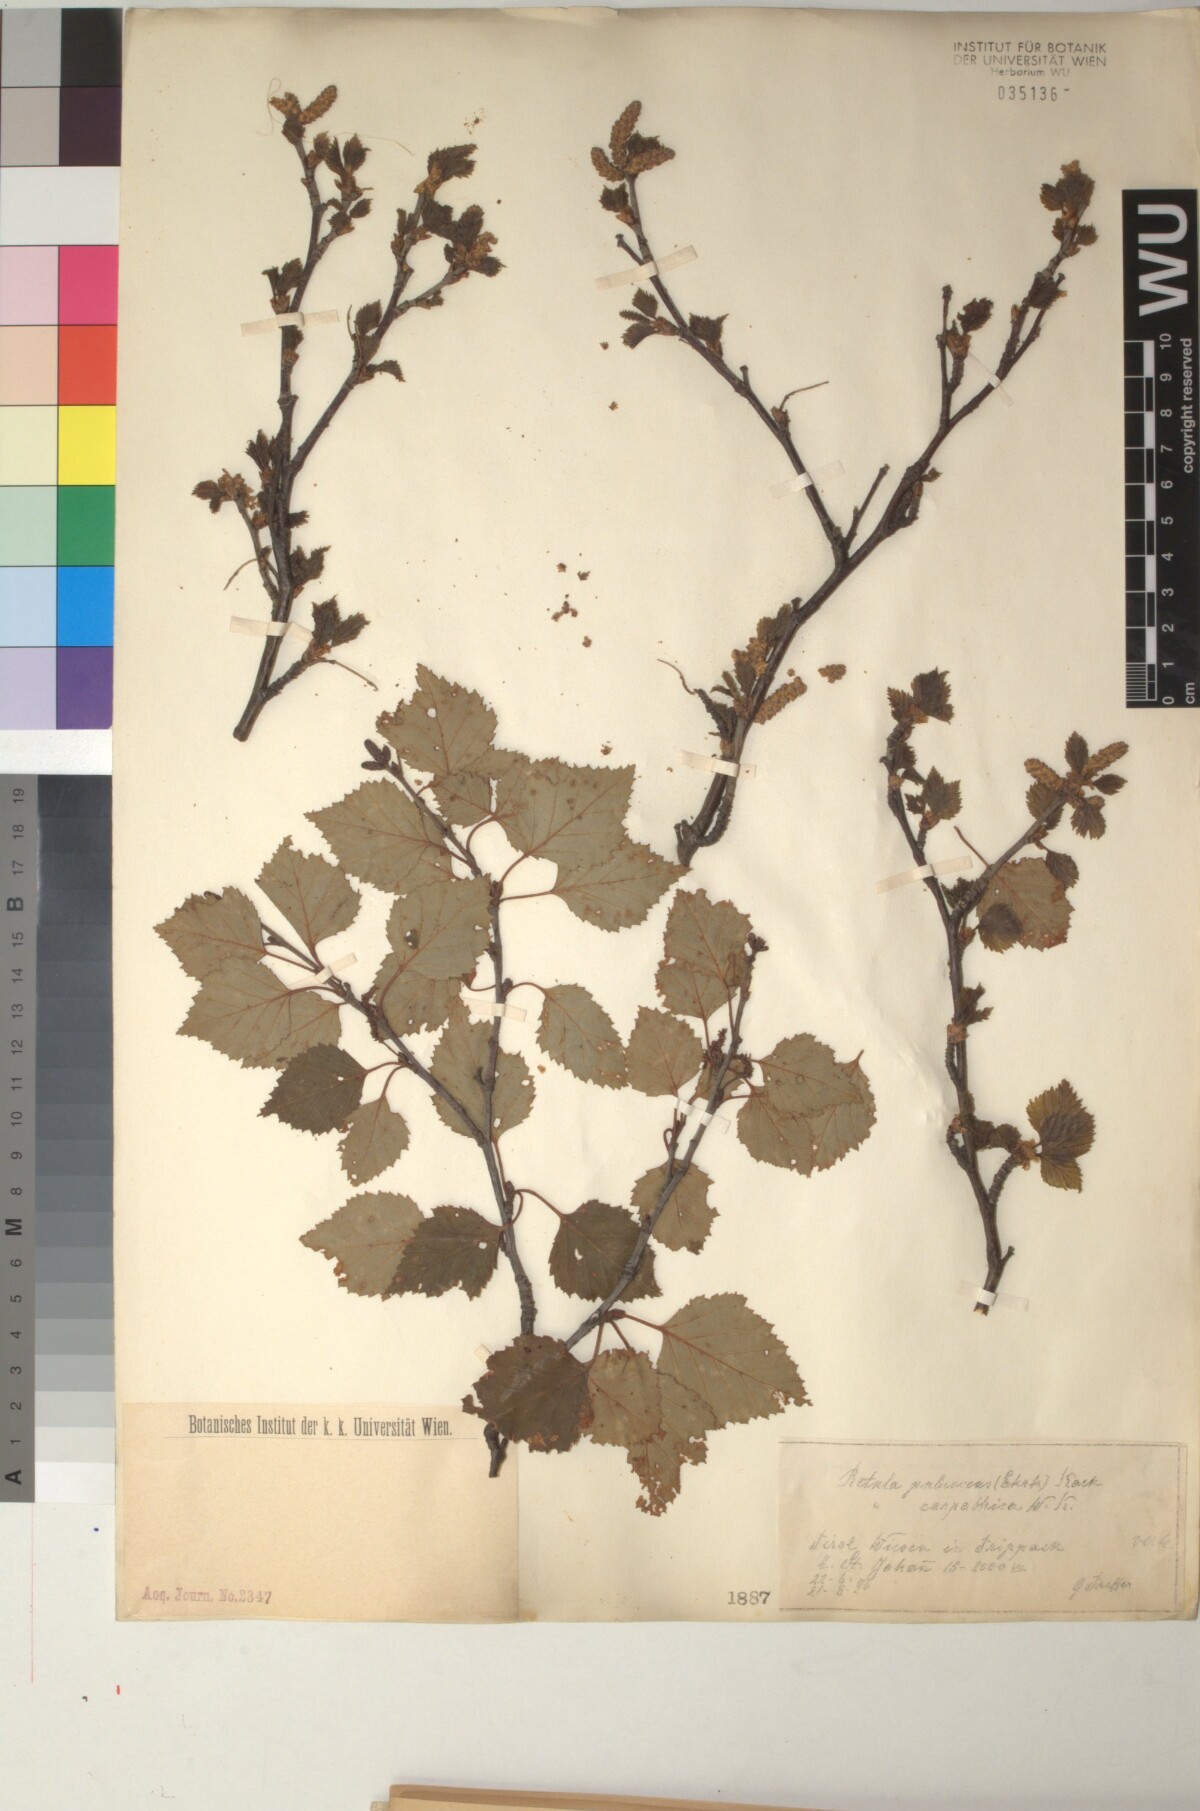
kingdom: Plantae
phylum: Tracheophyta
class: Magnoliopsida
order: Fagales
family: Betulaceae
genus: Betula
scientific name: Betula pubescens
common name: Downy birch
